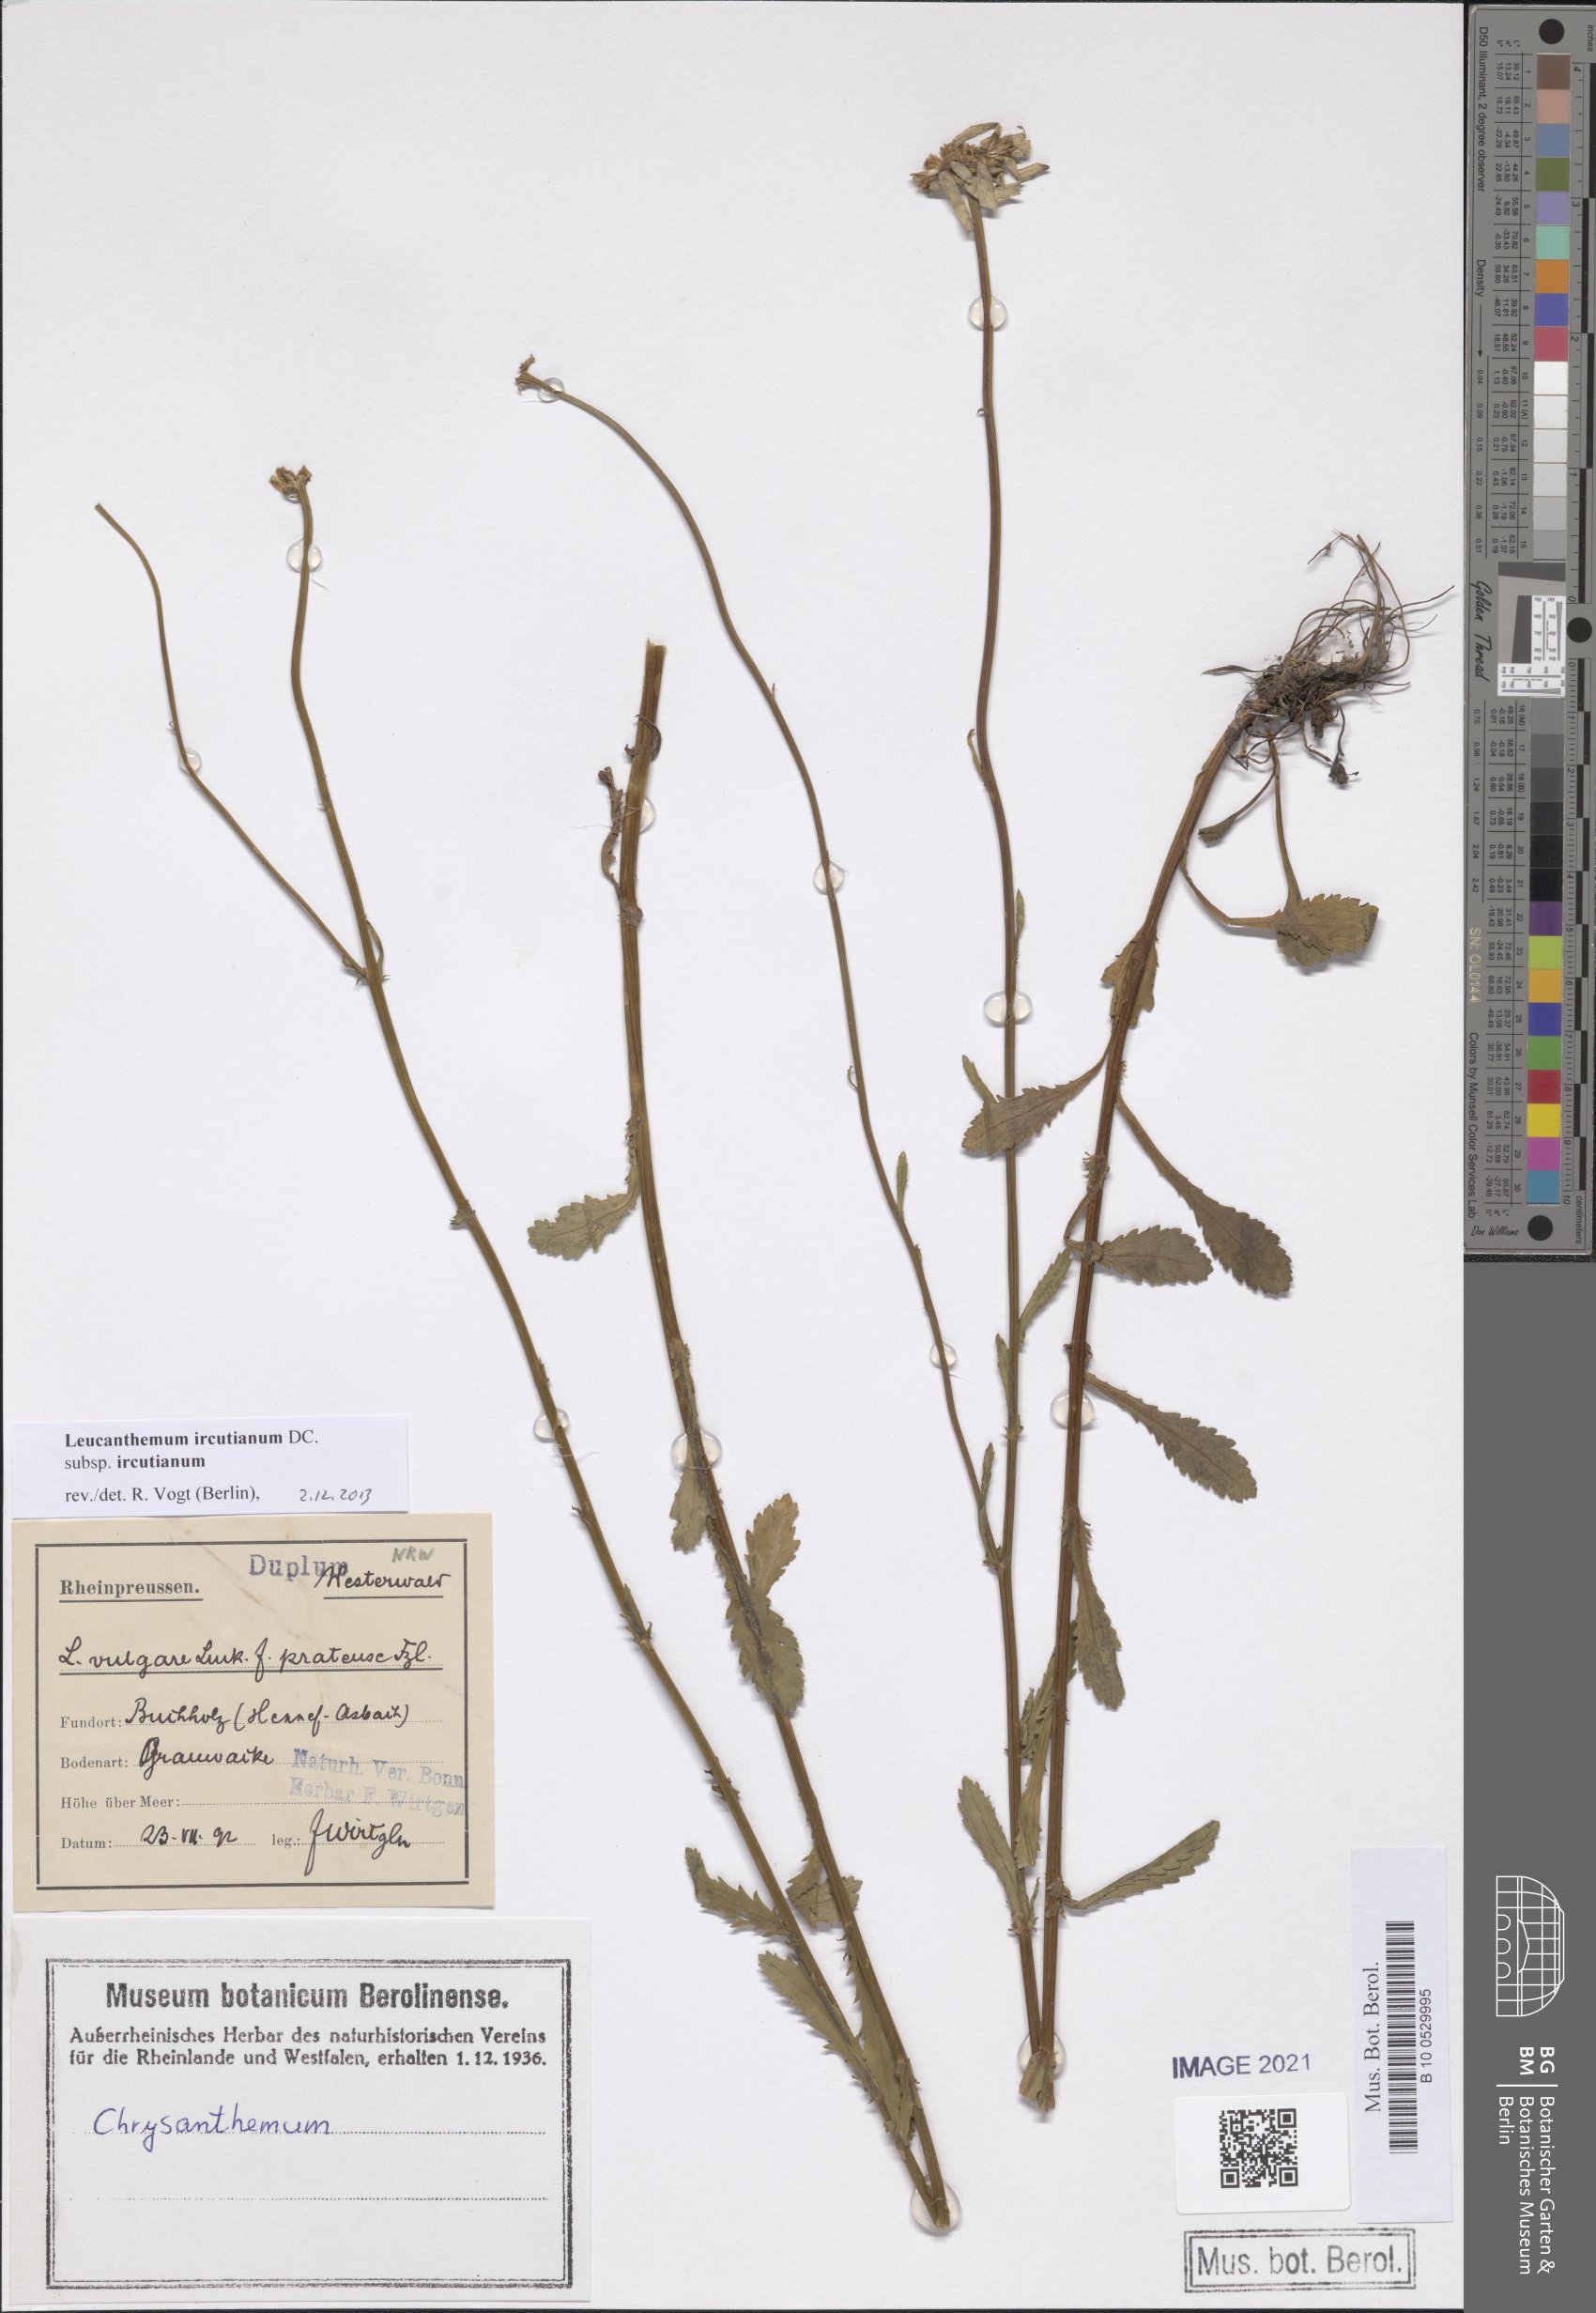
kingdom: Plantae
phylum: Tracheophyta
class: Magnoliopsida
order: Asterales
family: Asteraceae
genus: Leucanthemum
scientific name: Leucanthemum ircutianum
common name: Daisy
